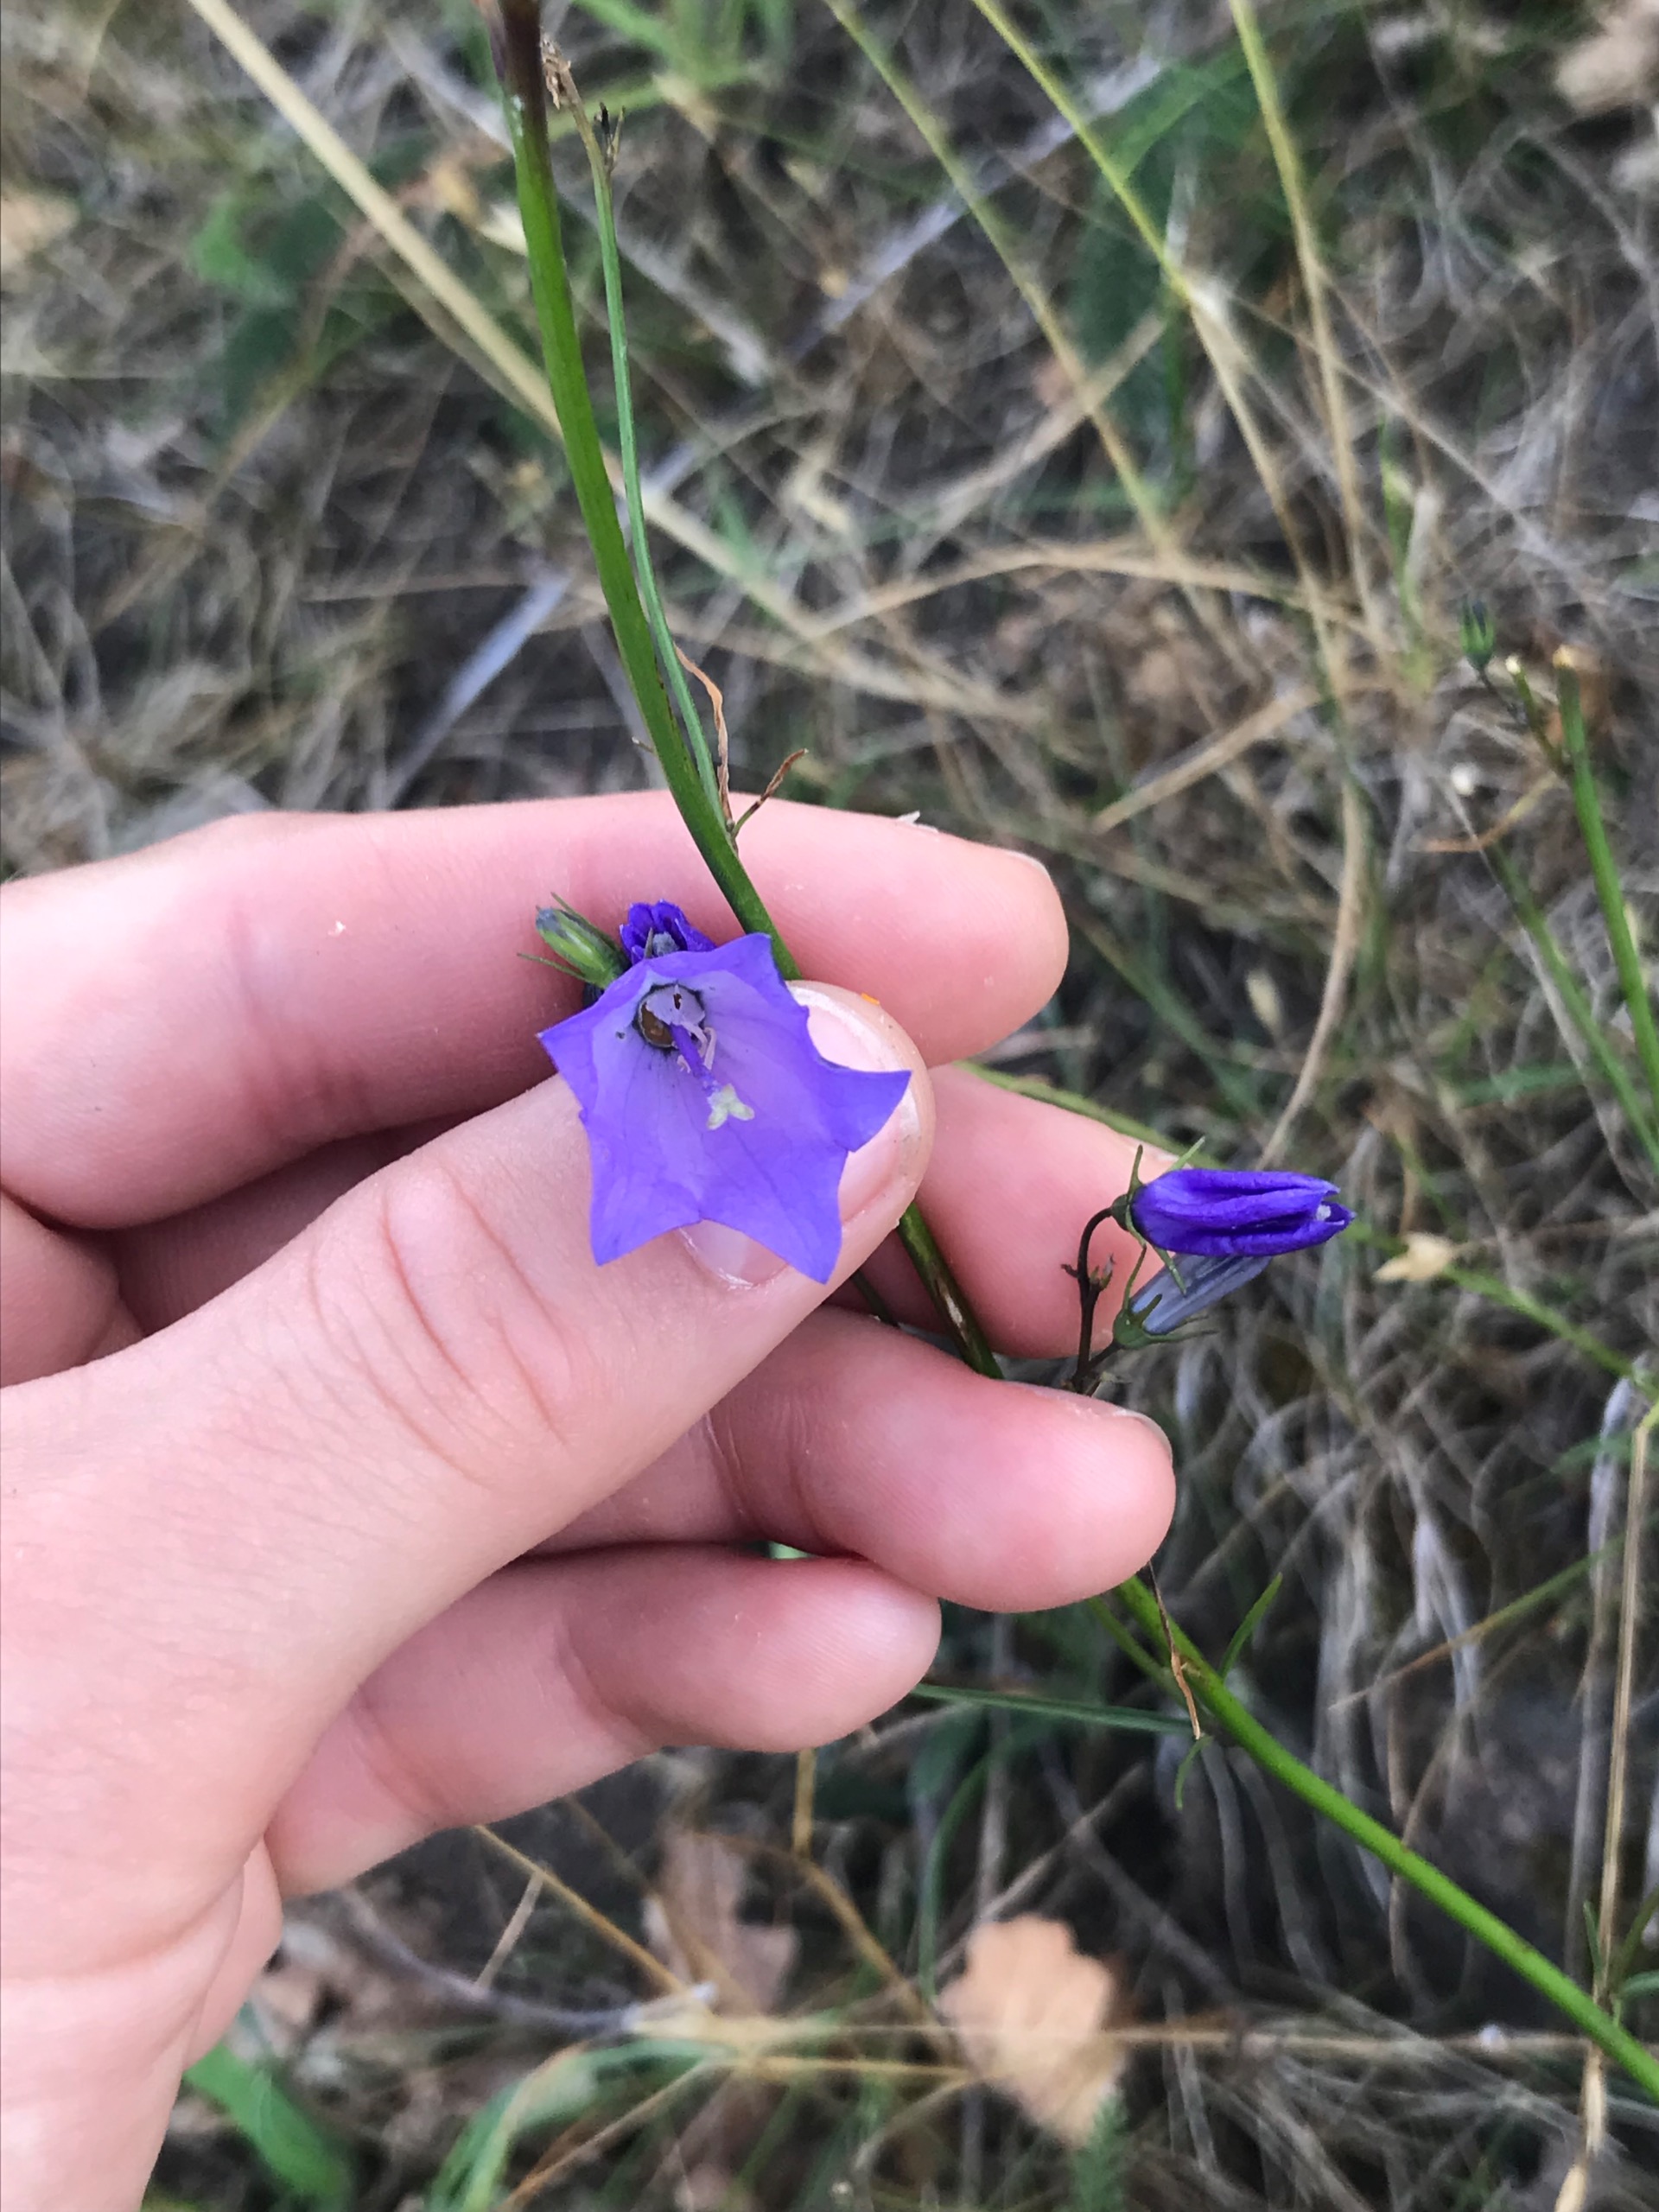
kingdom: Plantae
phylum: Tracheophyta
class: Magnoliopsida
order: Asterales
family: Campanulaceae
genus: Campanula
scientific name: Campanula rotundifolia
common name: Liden klokke
